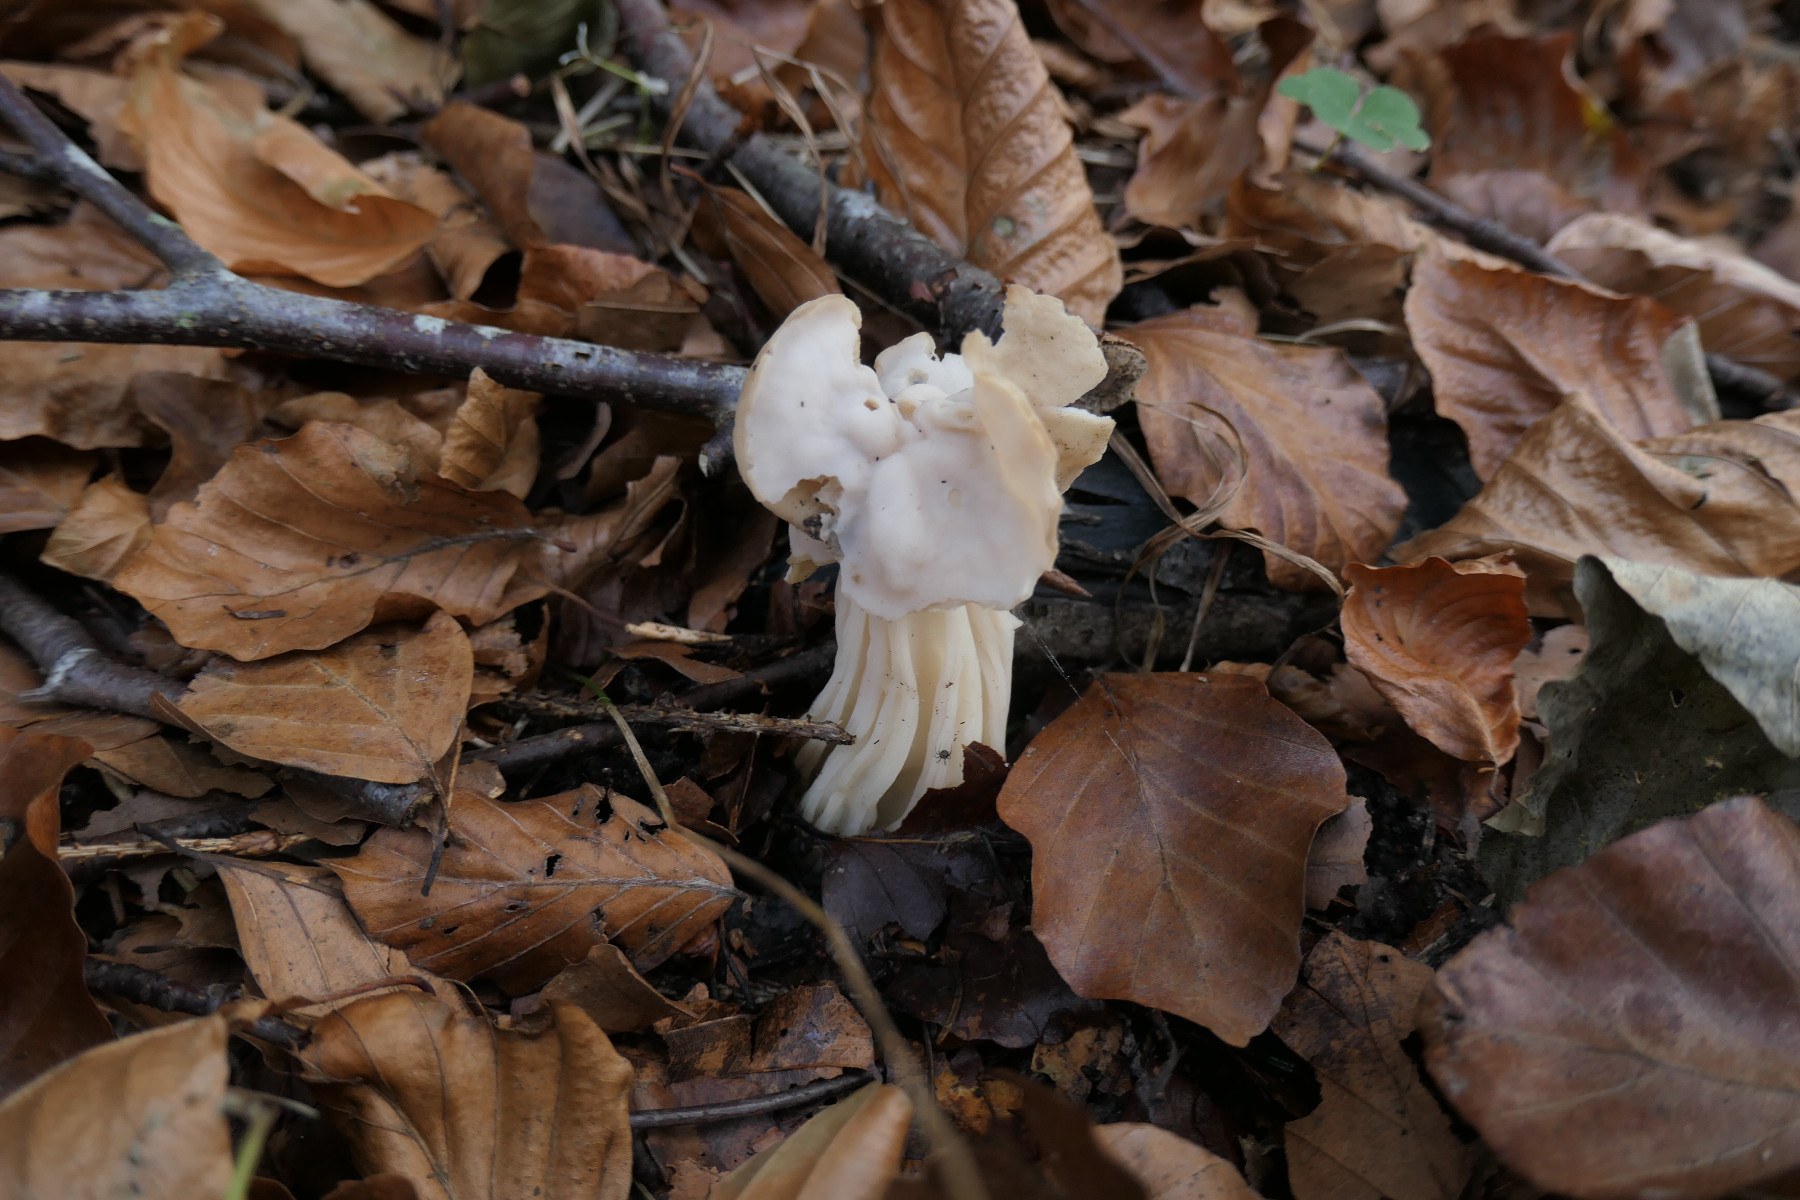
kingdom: Fungi
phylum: Ascomycota
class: Pezizomycetes
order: Pezizales
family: Helvellaceae
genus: Helvella
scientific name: Helvella crispa
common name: kruset foldhat
